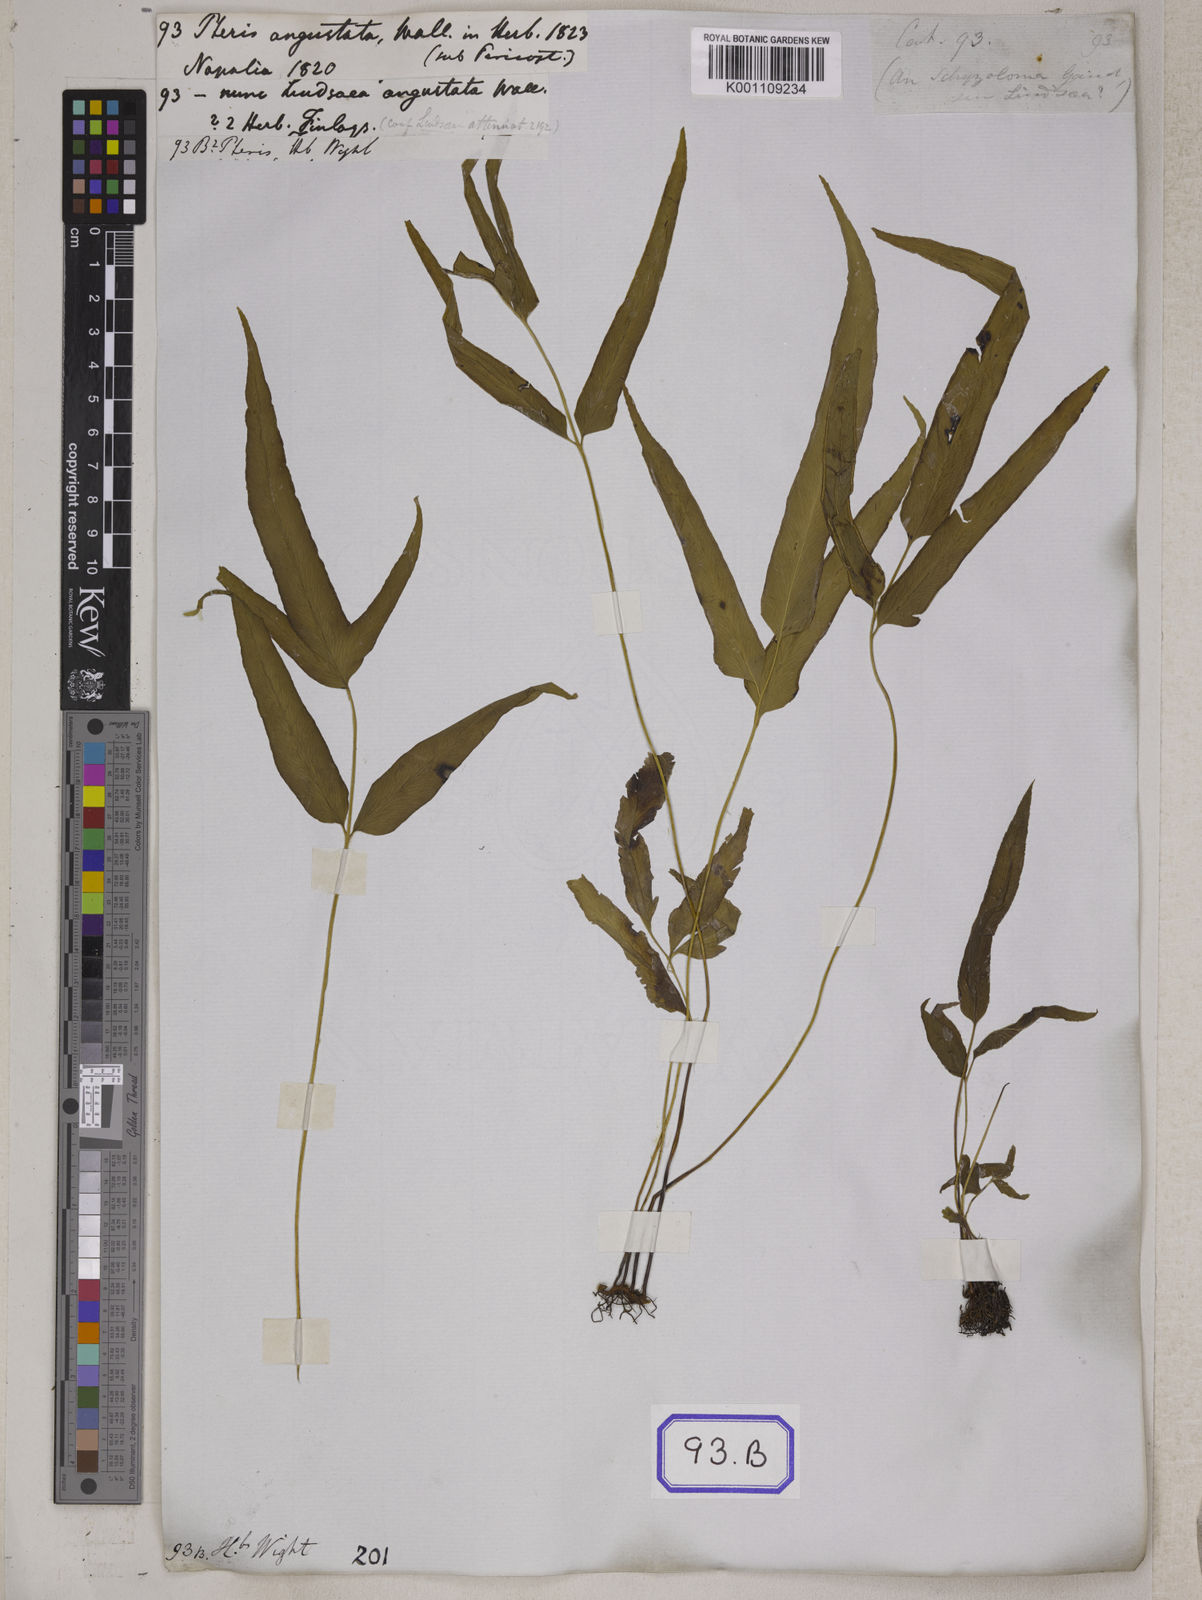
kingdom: Plantae
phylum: Tracheophyta
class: Polypodiopsida
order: Polypodiales
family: Lindsaeaceae
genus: Lindsaea
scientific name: Lindsaea ensifolia
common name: Graceful necklace fern
